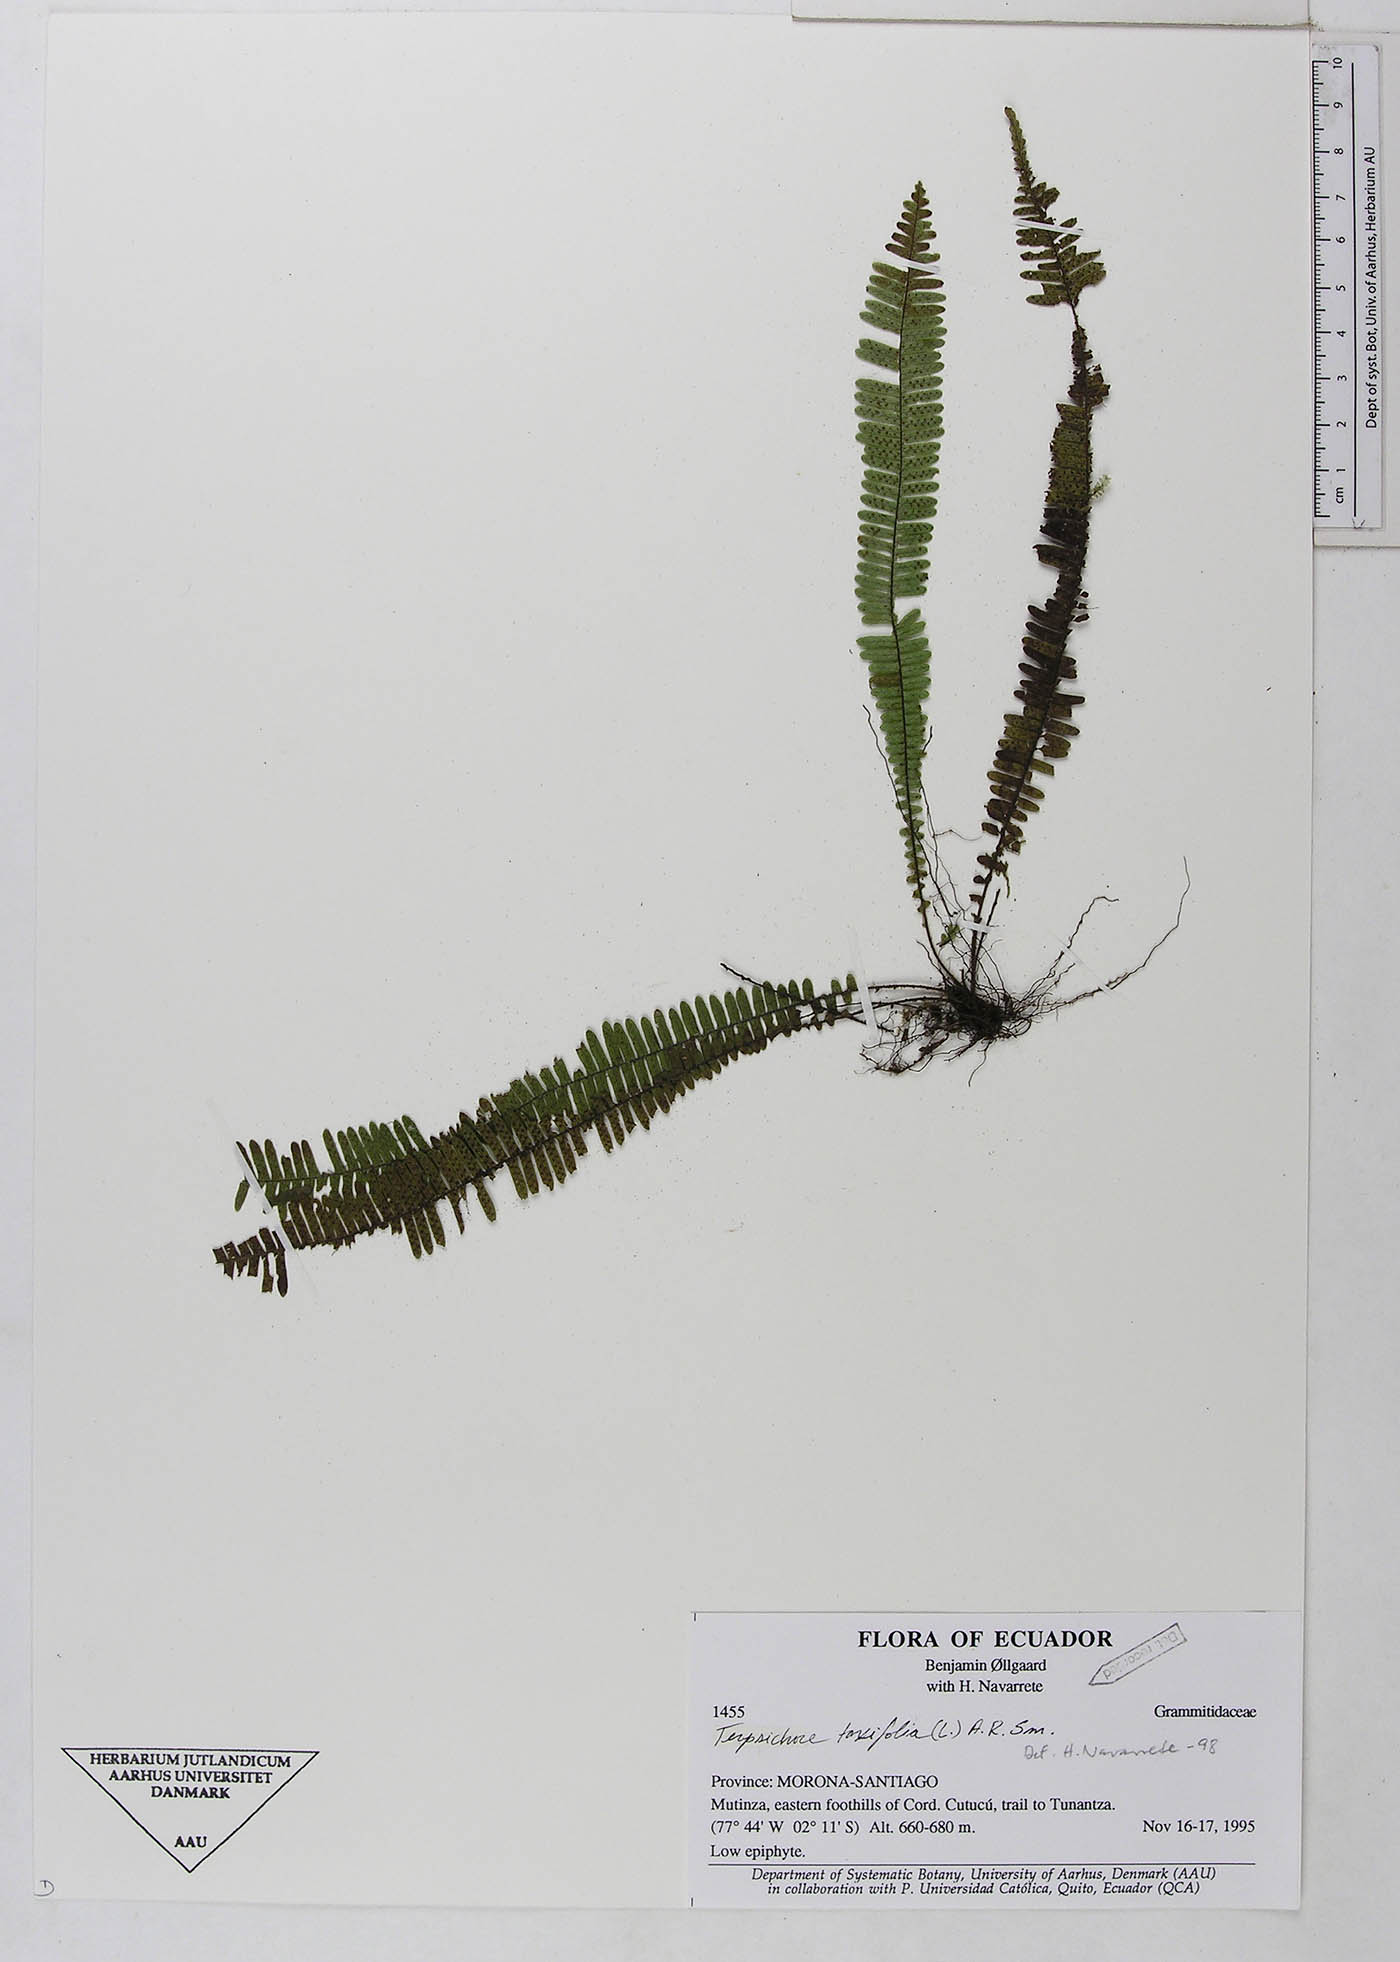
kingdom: Plantae
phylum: Tracheophyta
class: Polypodiopsida
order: Polypodiales
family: Polypodiaceae
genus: Mycopteris
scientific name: Mycopteris taxifolia
